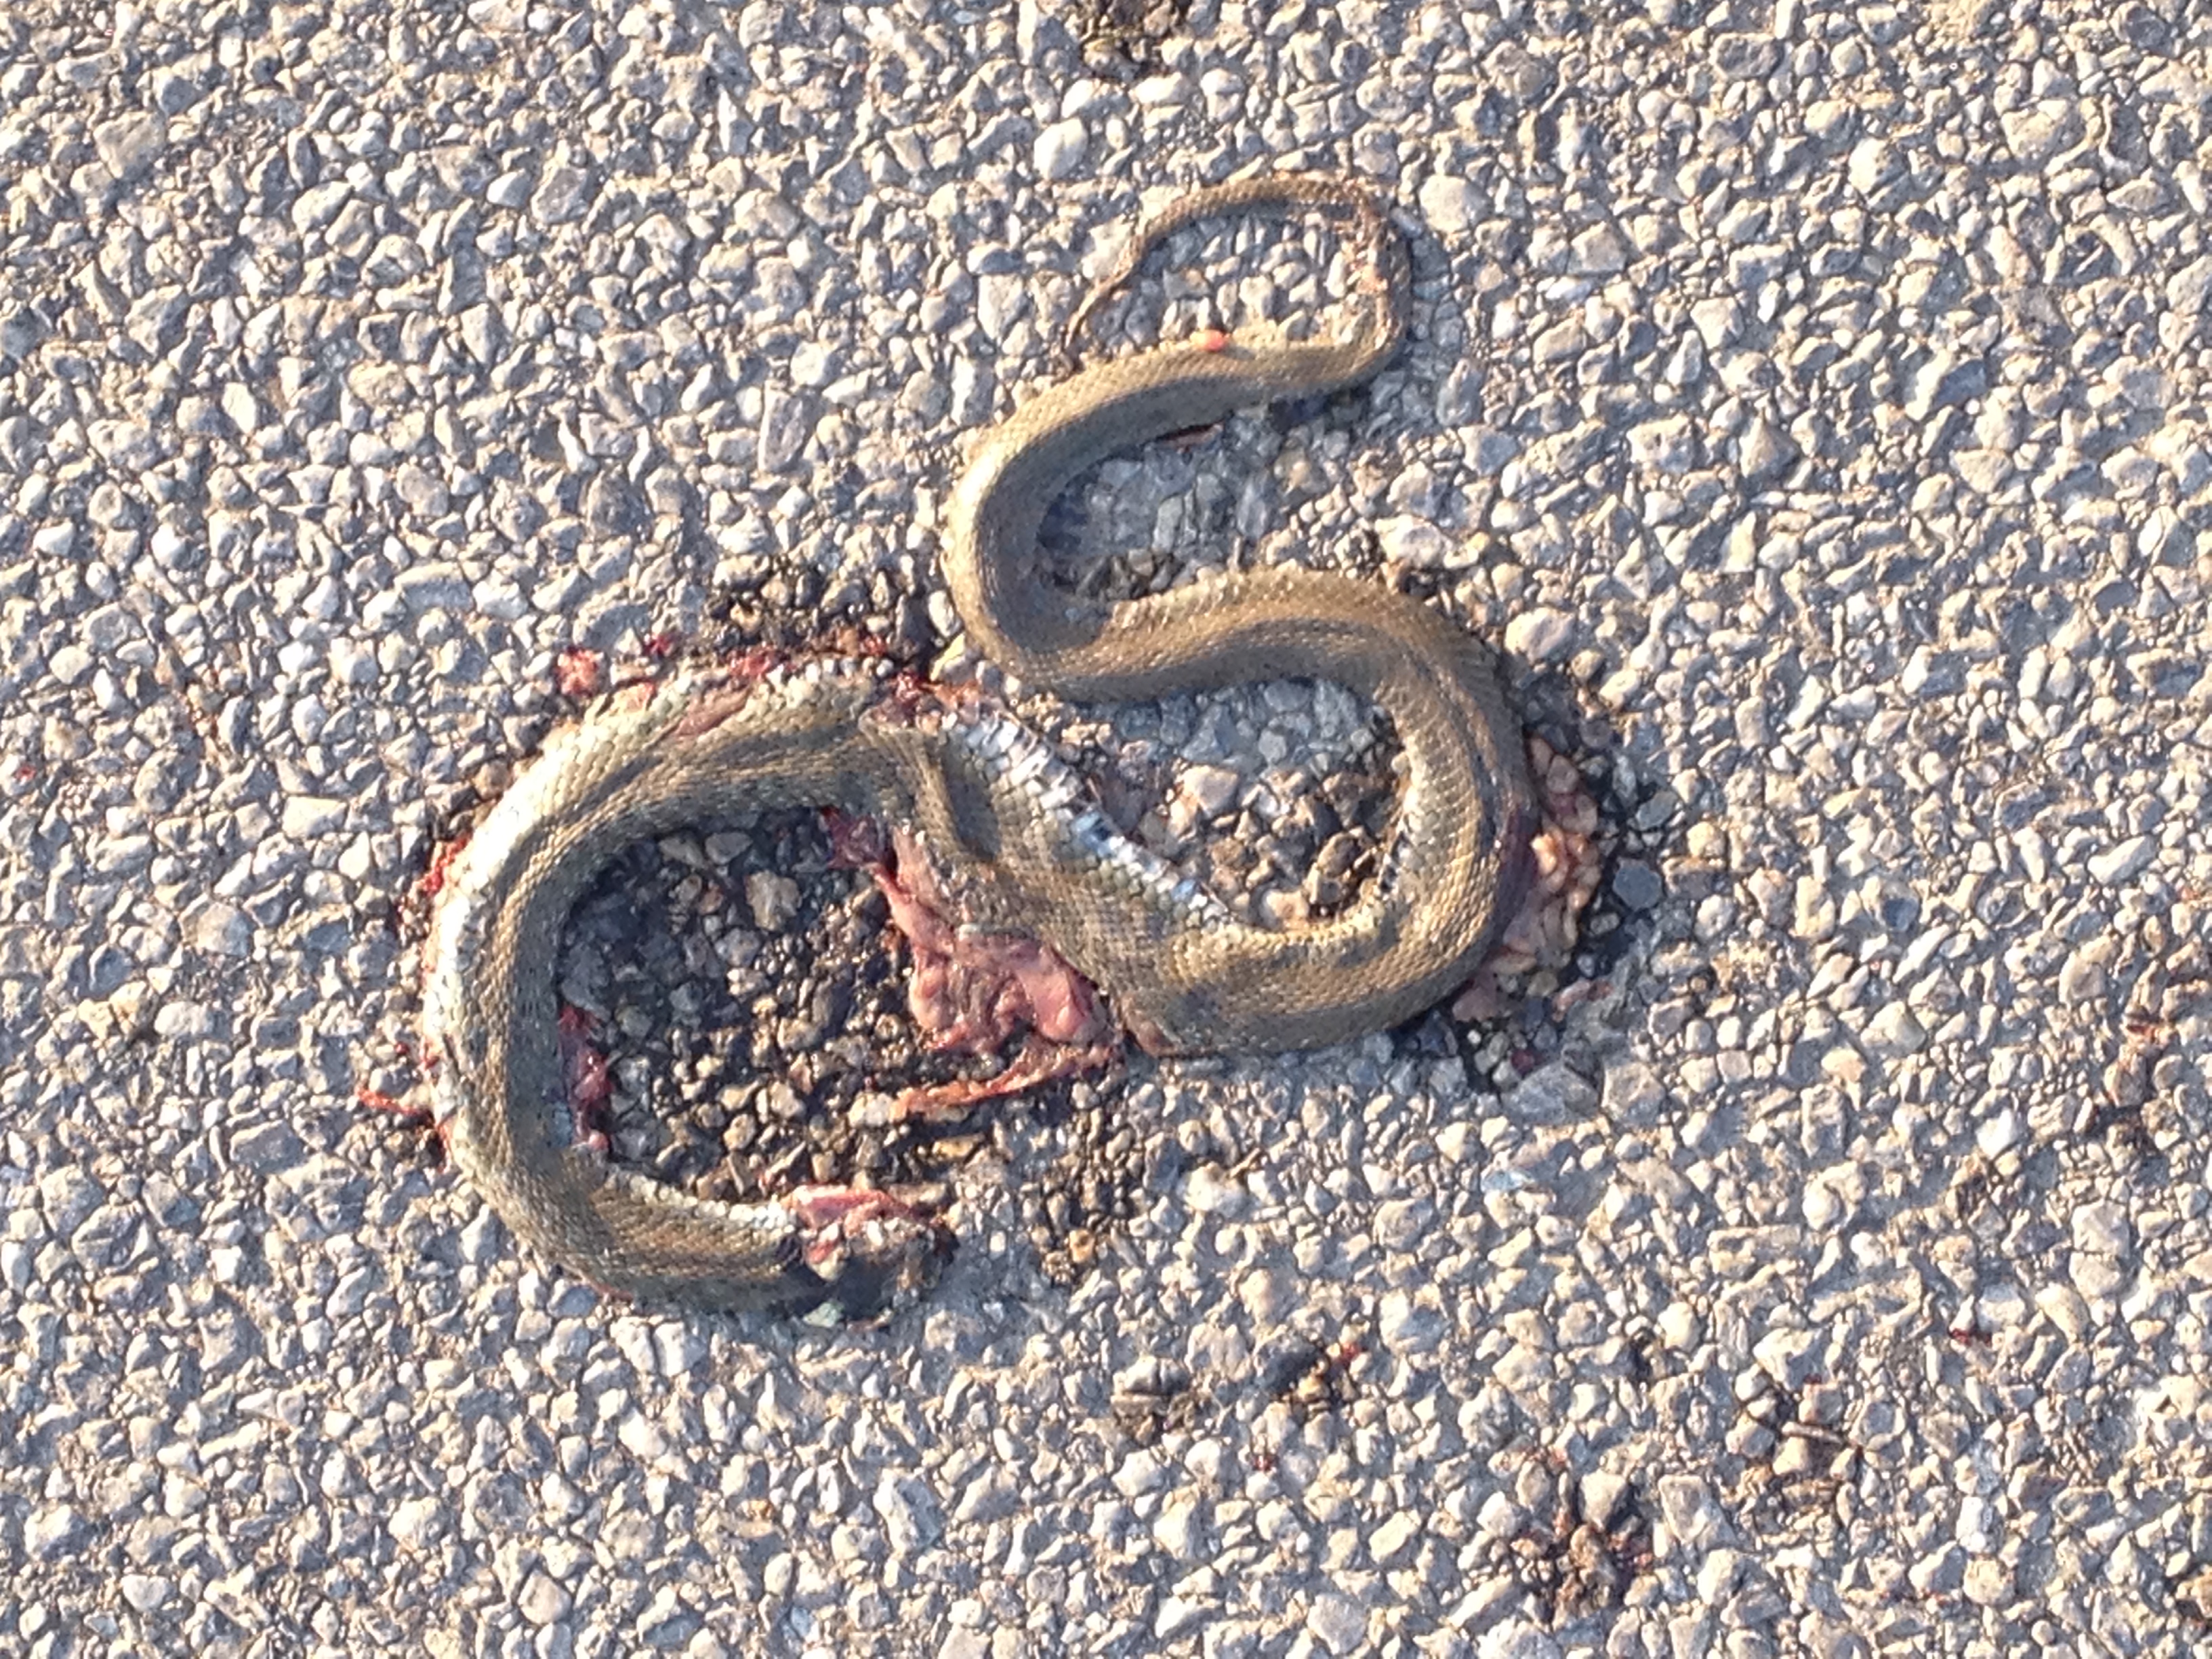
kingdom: Animalia
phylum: Chordata
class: Squamata
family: Colubridae
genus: Natrix
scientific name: Natrix natrix
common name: Grass snake
